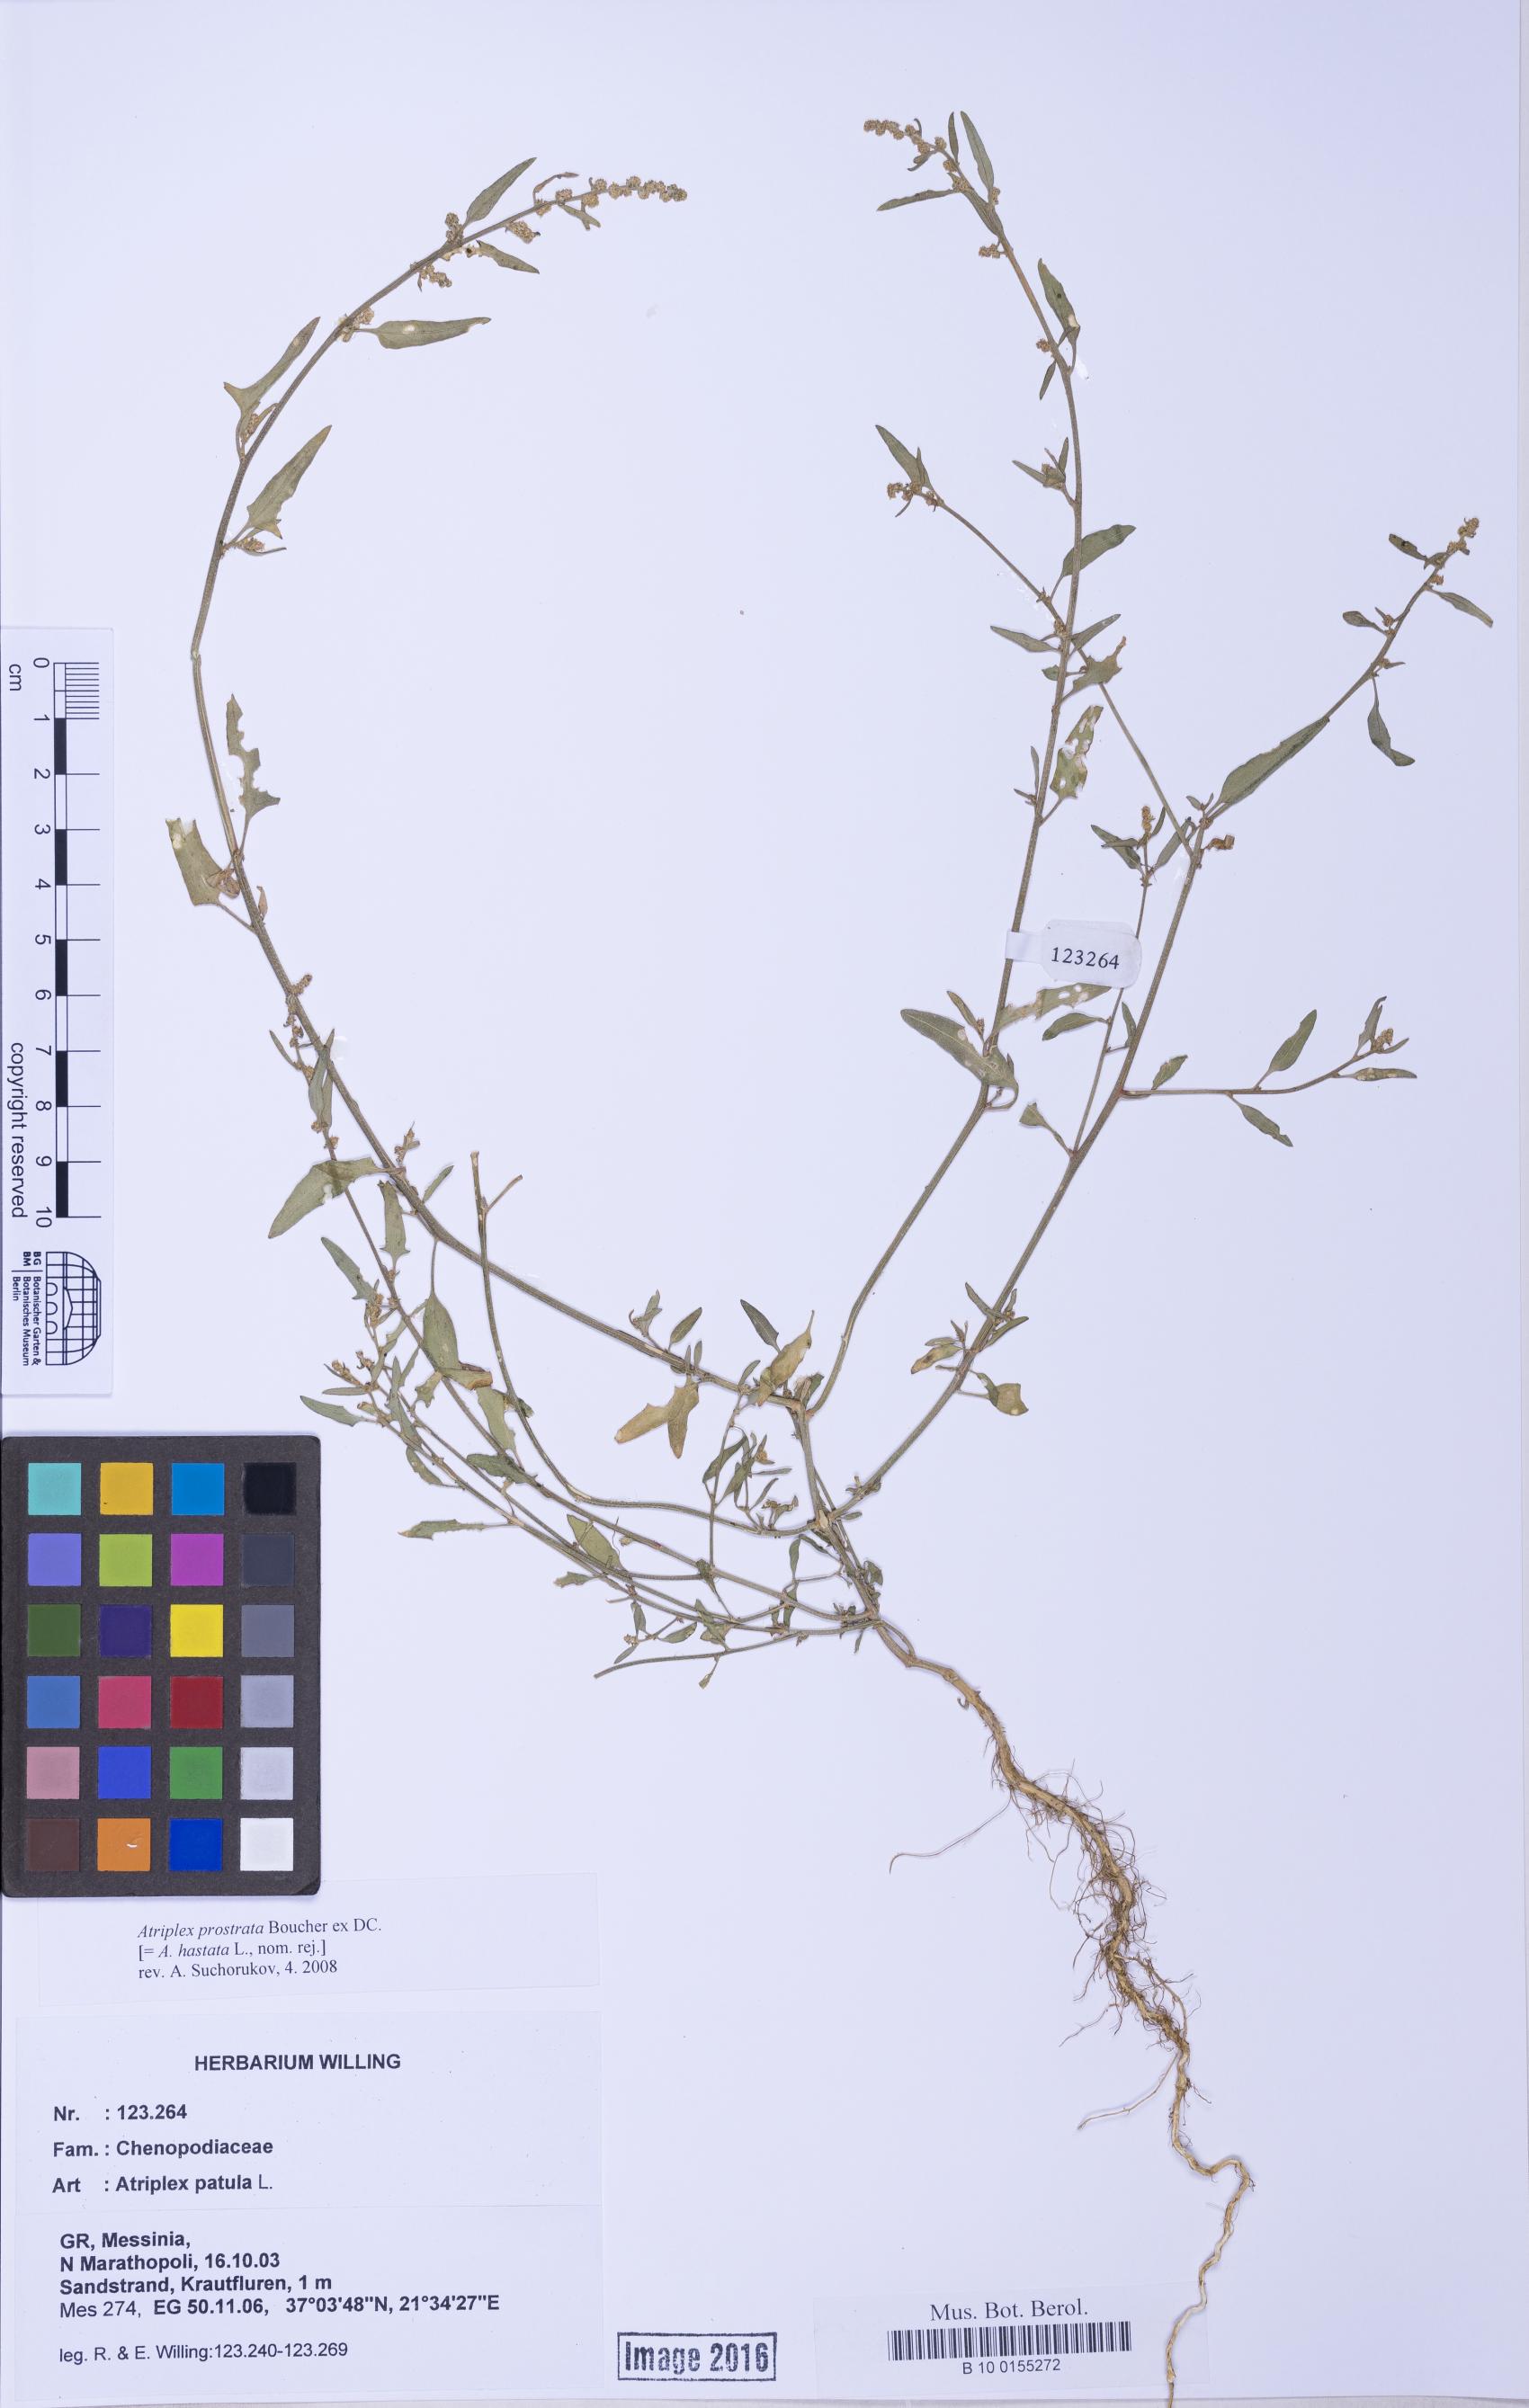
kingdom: Plantae
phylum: Tracheophyta
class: Magnoliopsida
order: Caryophyllales
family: Amaranthaceae
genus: Atriplex
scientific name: Atriplex prostrata
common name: Spear-leaved orache
